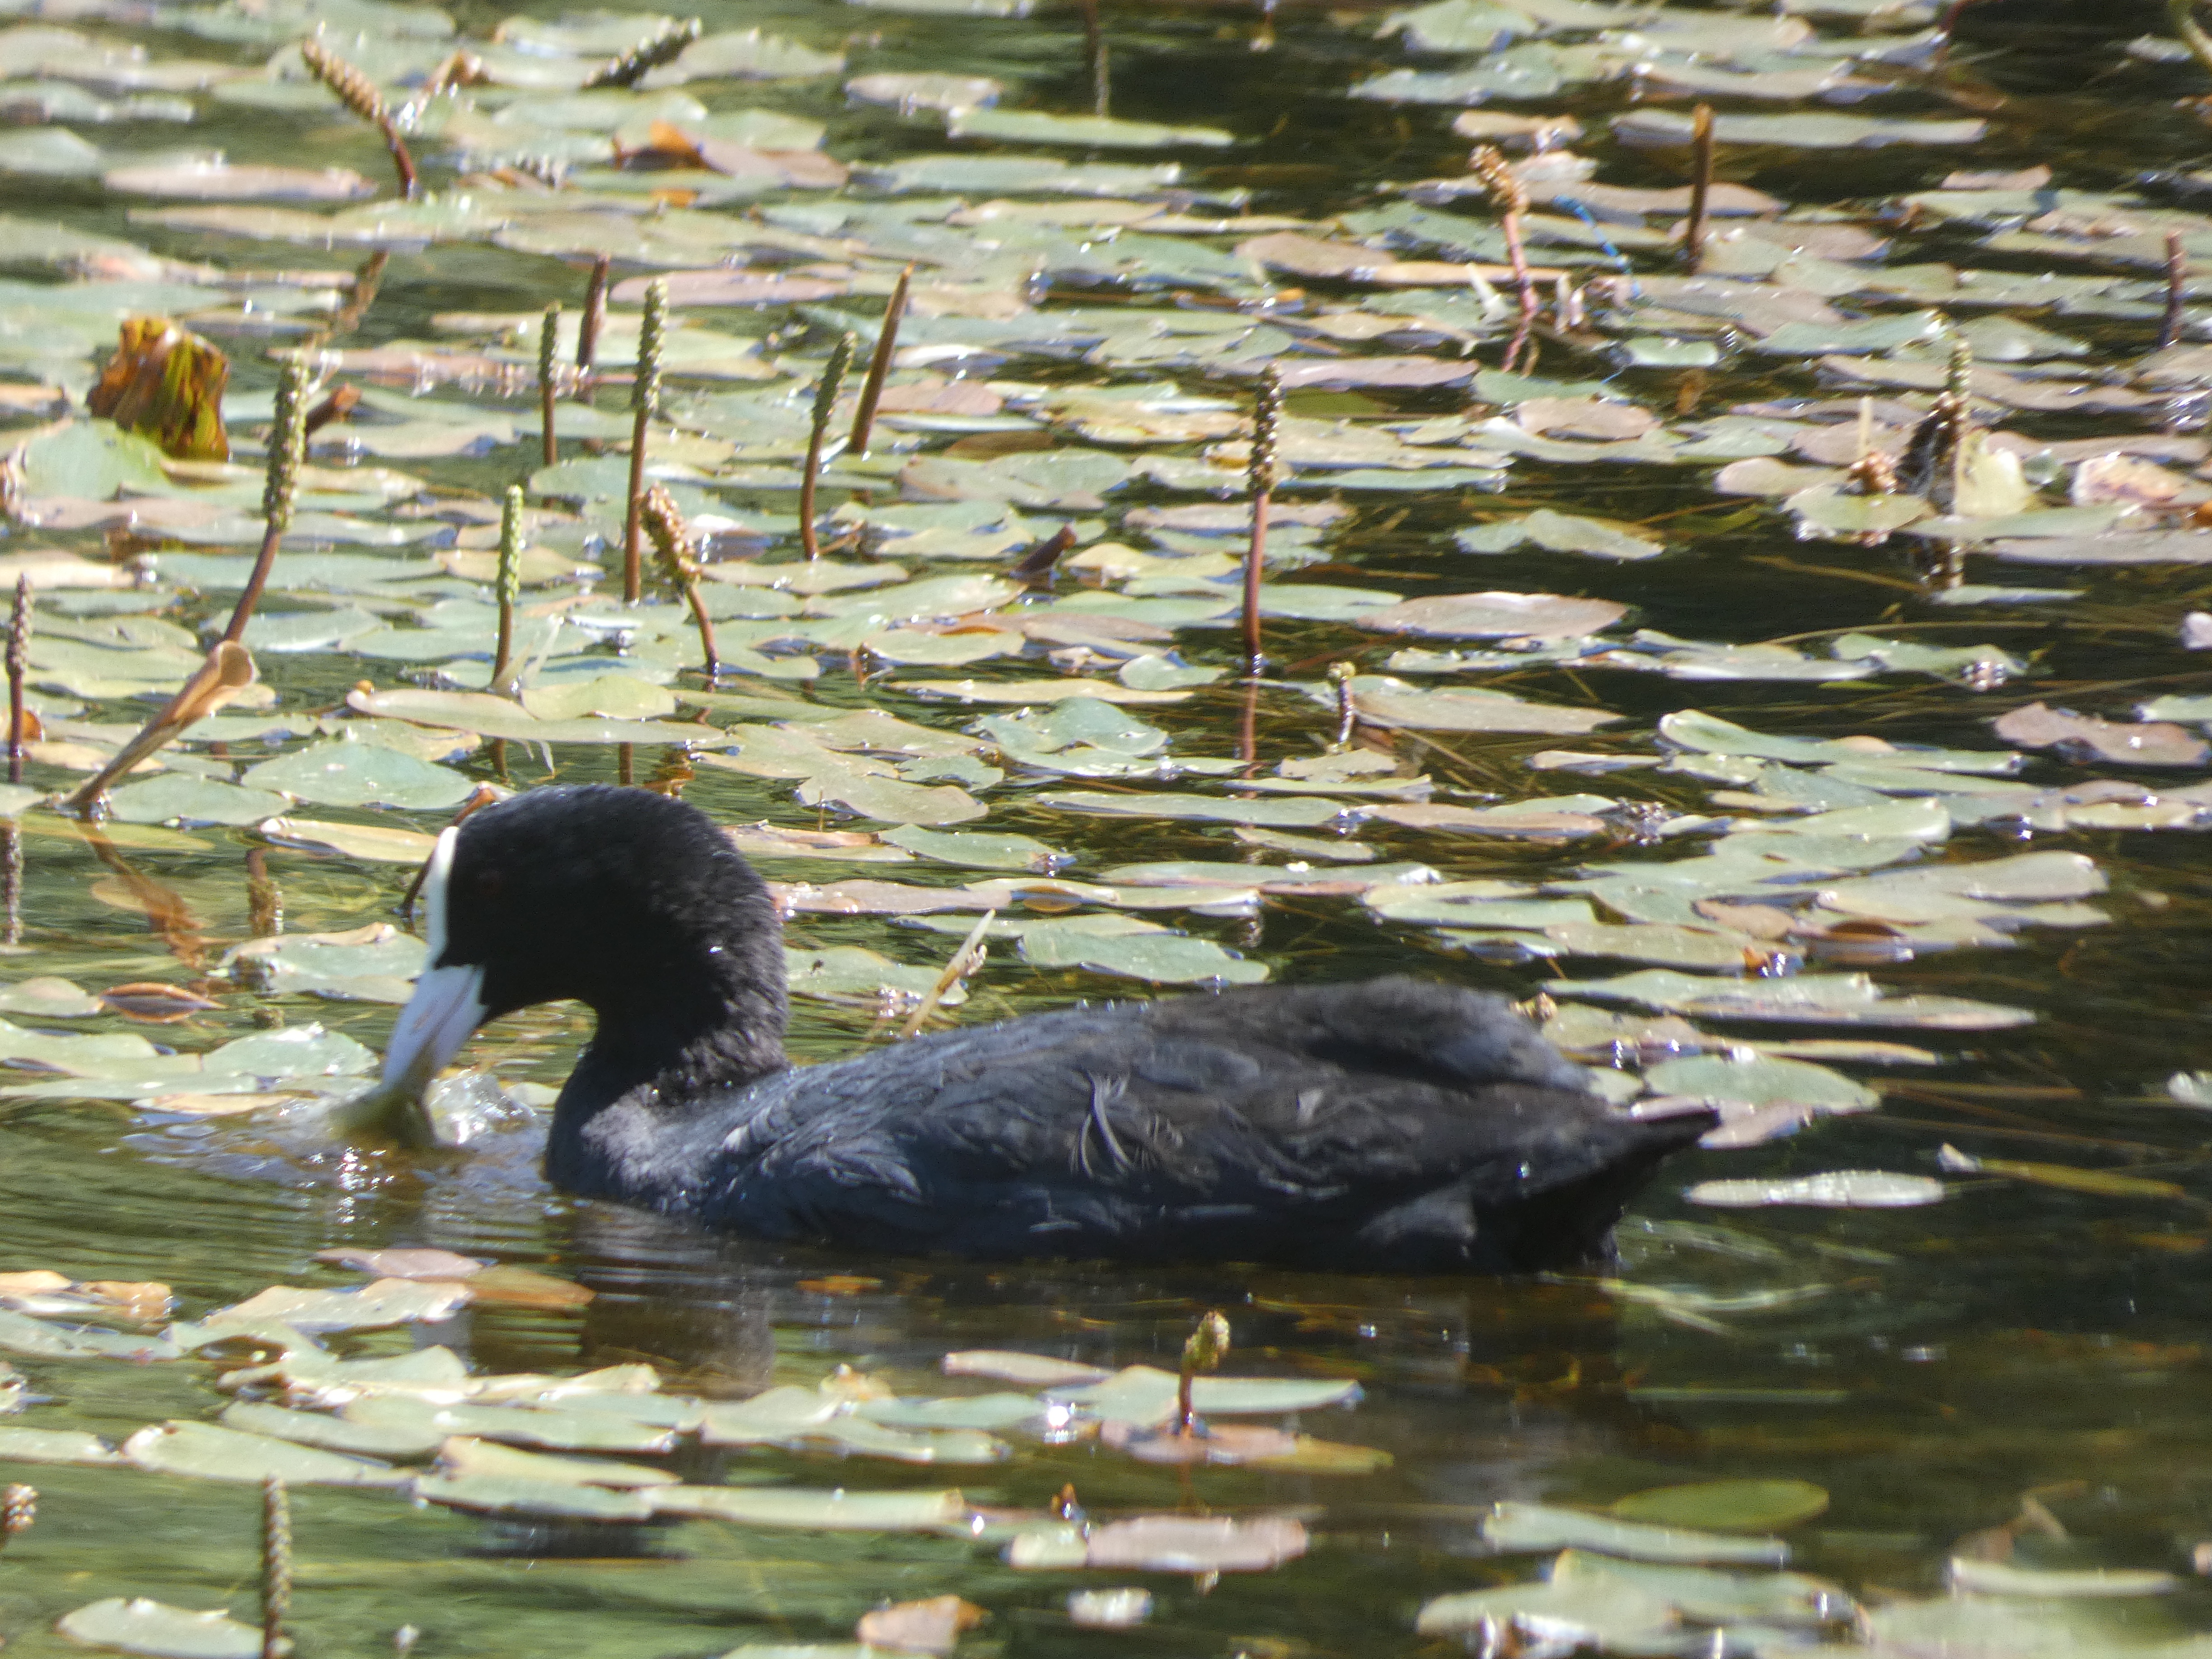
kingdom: Animalia
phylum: Chordata
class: Aves
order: Gruiformes
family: Rallidae
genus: Fulica
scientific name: Fulica atra
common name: Blishøne
